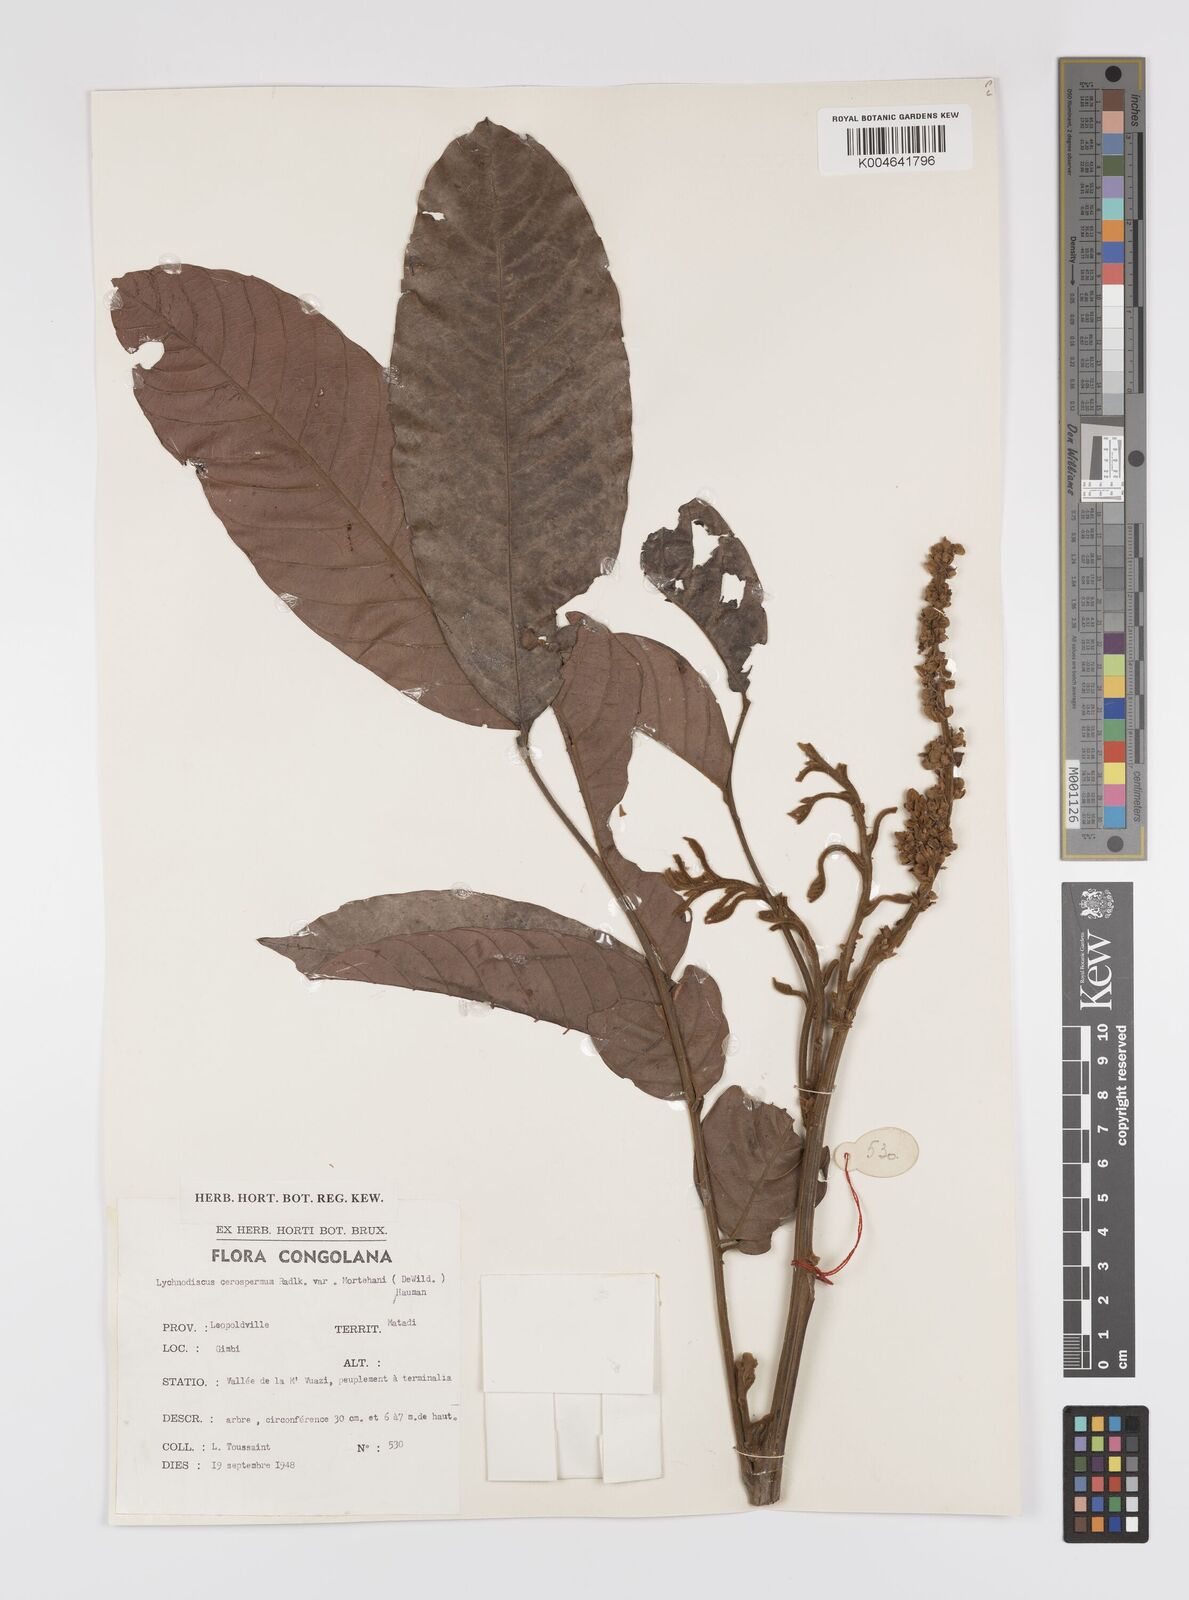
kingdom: Plantae
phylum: Tracheophyta
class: Magnoliopsida
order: Sapindales
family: Sapindaceae
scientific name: Sapindaceae
